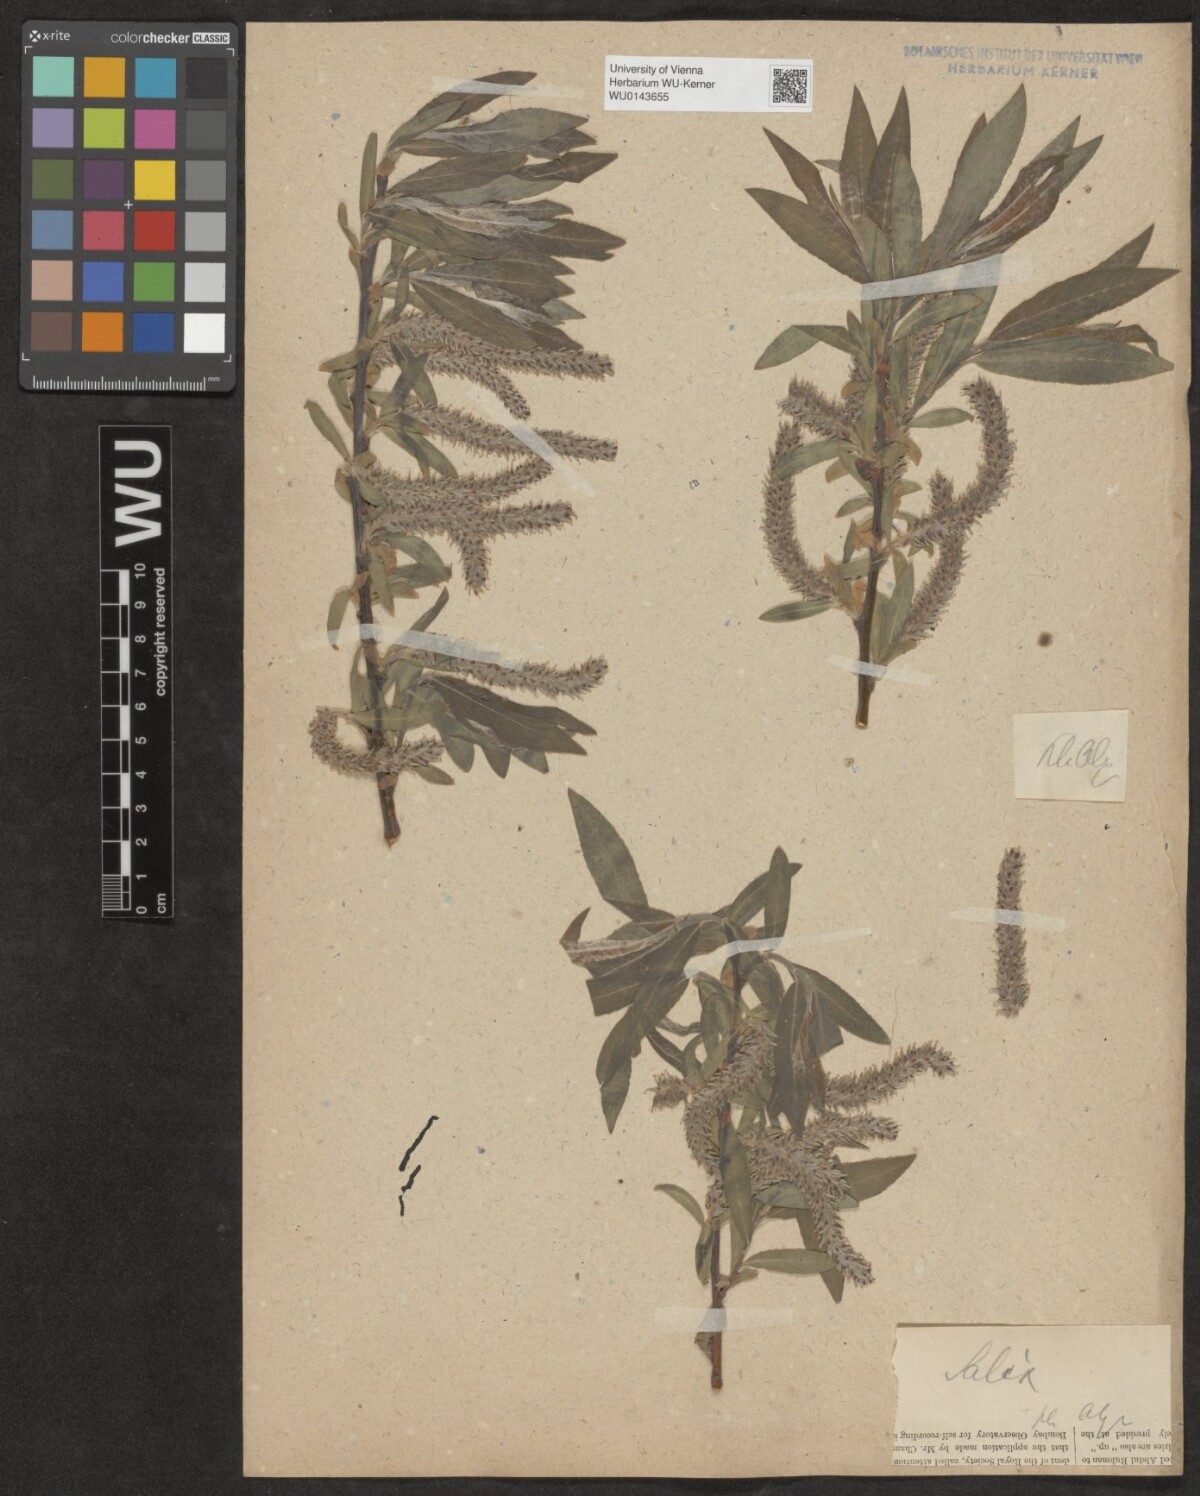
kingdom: Plantae
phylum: Tracheophyta
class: Magnoliopsida
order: Malpighiales
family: Salicaceae
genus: Salix
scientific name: Salix
